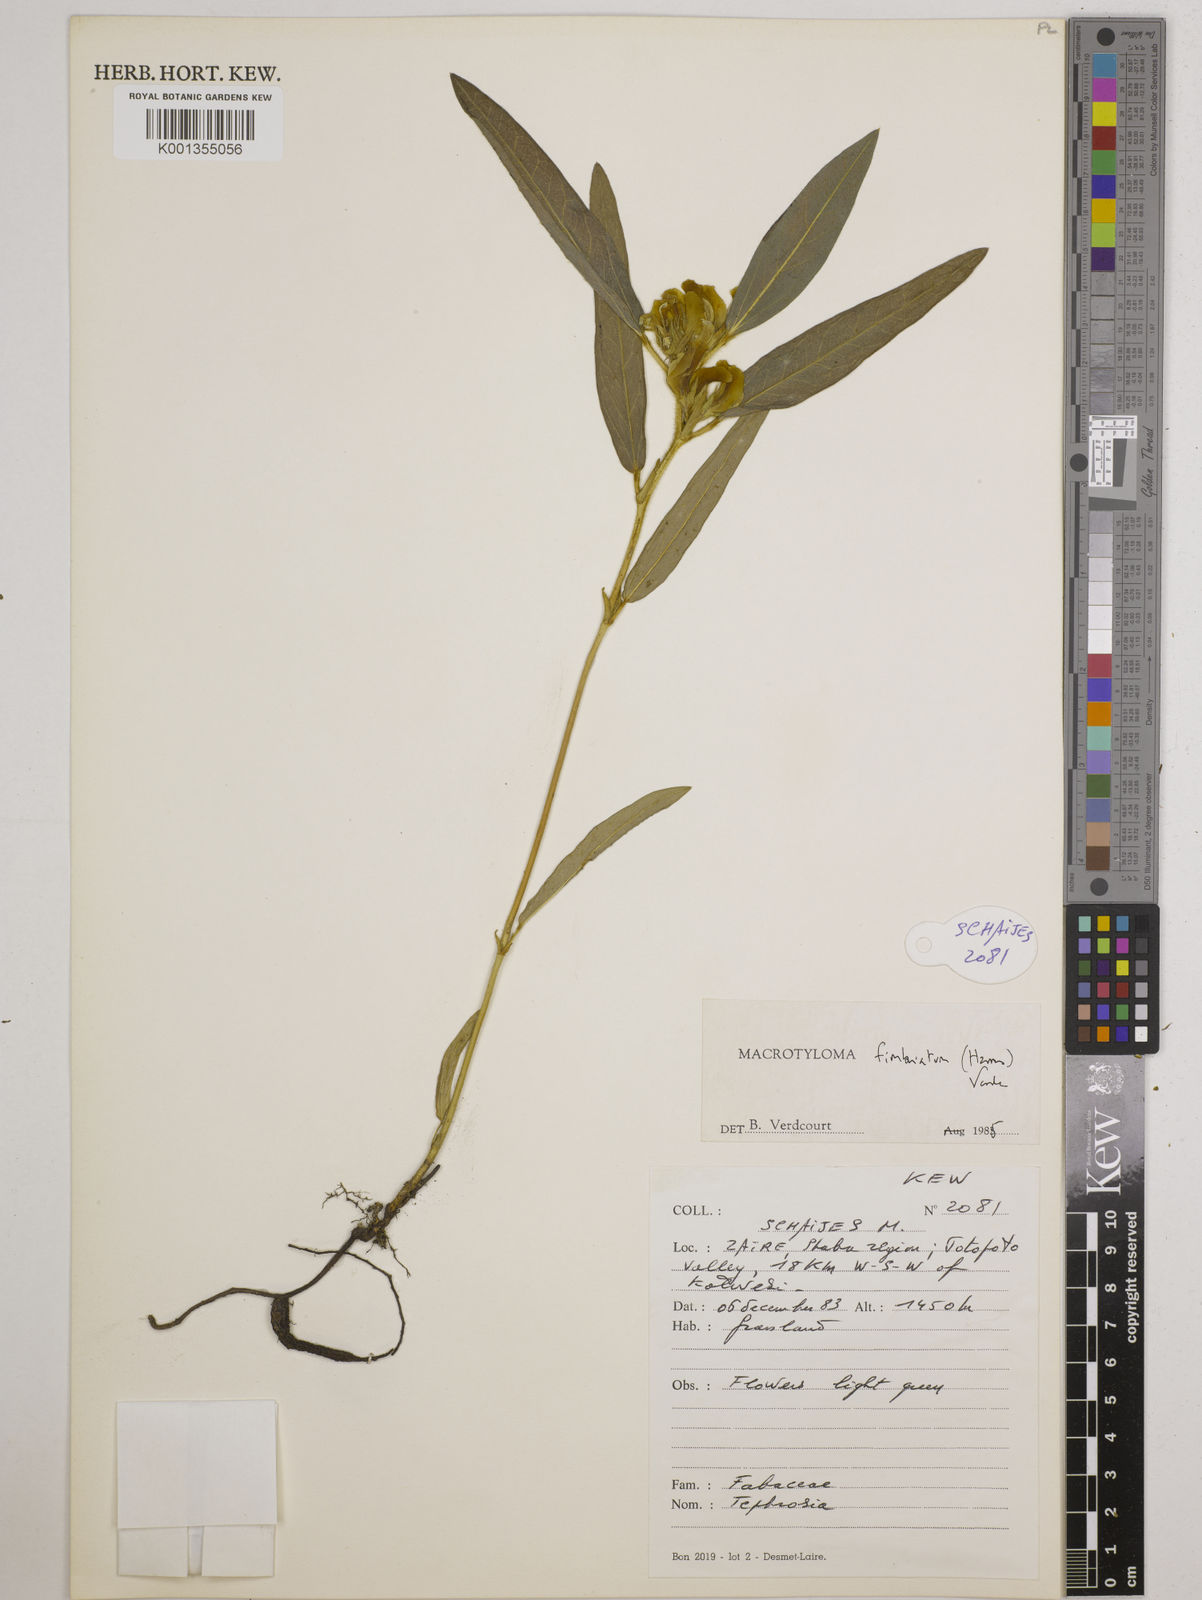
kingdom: Plantae
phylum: Tracheophyta
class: Magnoliopsida
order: Fabales
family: Fabaceae
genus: Macrotyloma
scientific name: Macrotyloma fimbriatum
